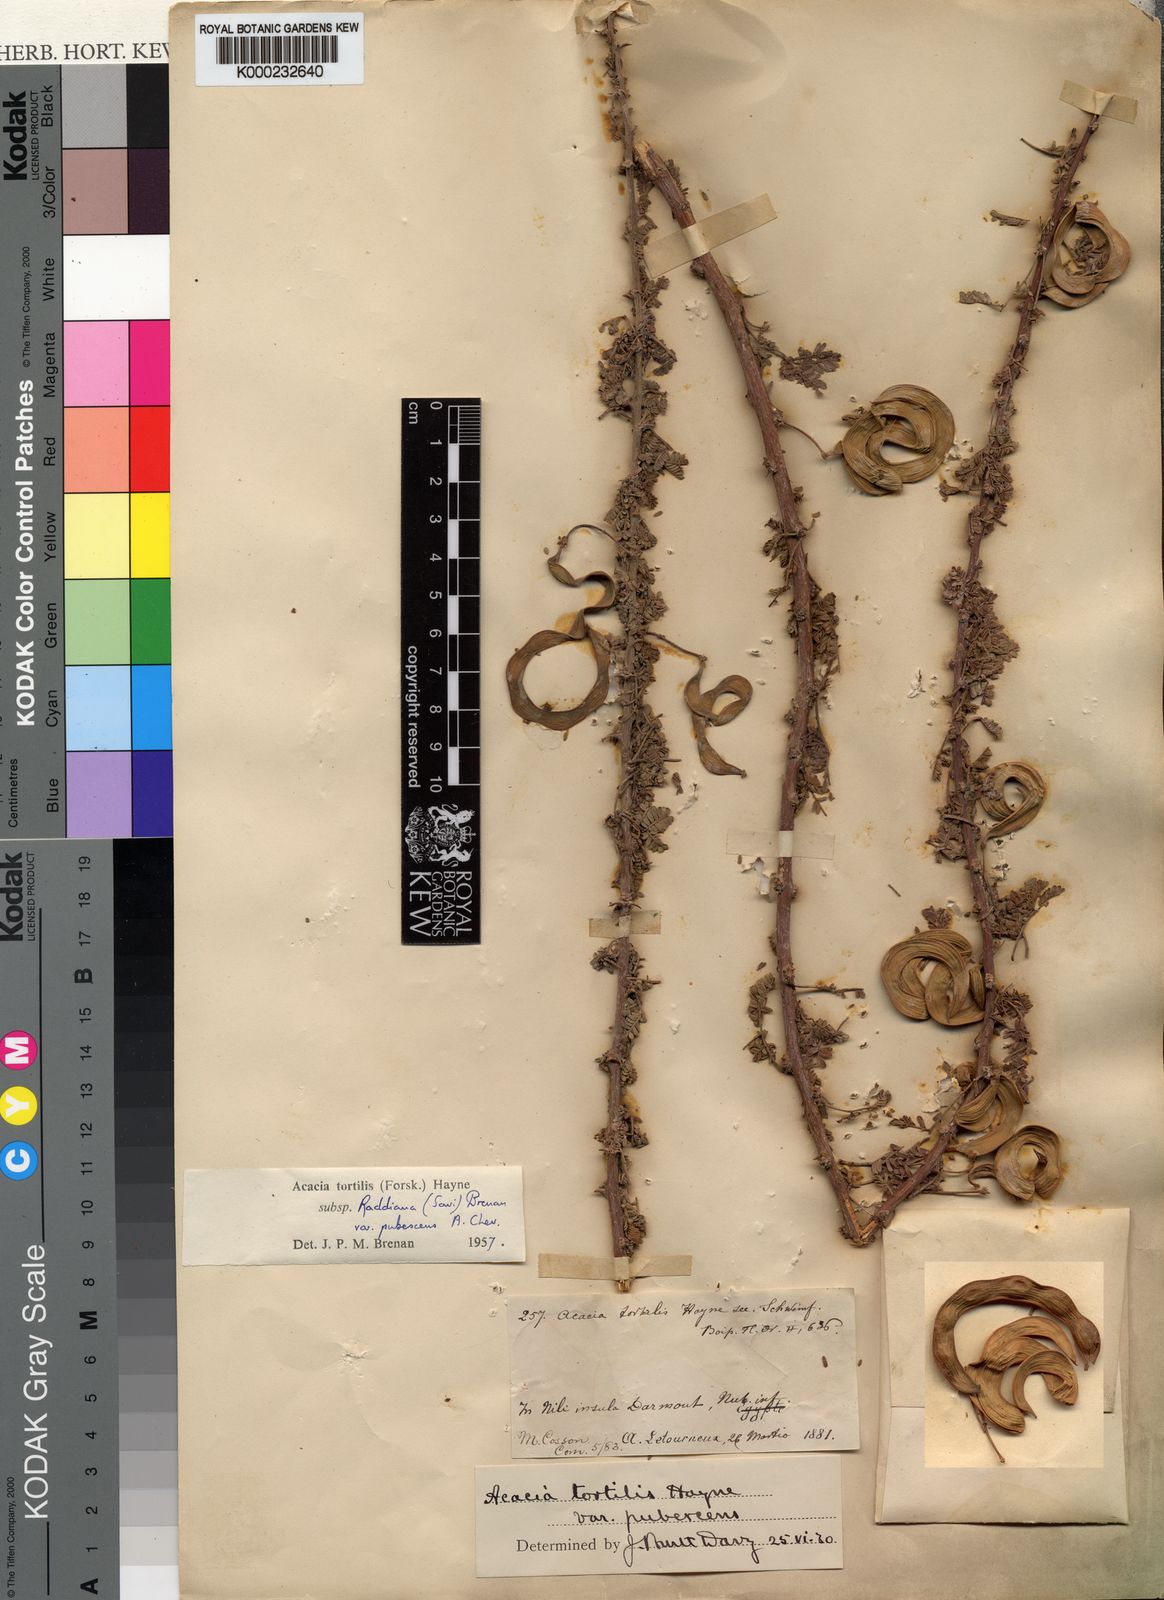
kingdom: Plantae
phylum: Tracheophyta
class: Magnoliopsida
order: Fabales
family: Fabaceae
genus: Vachellia
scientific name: Vachellia tortilis
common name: Umbrella thorn acacia
